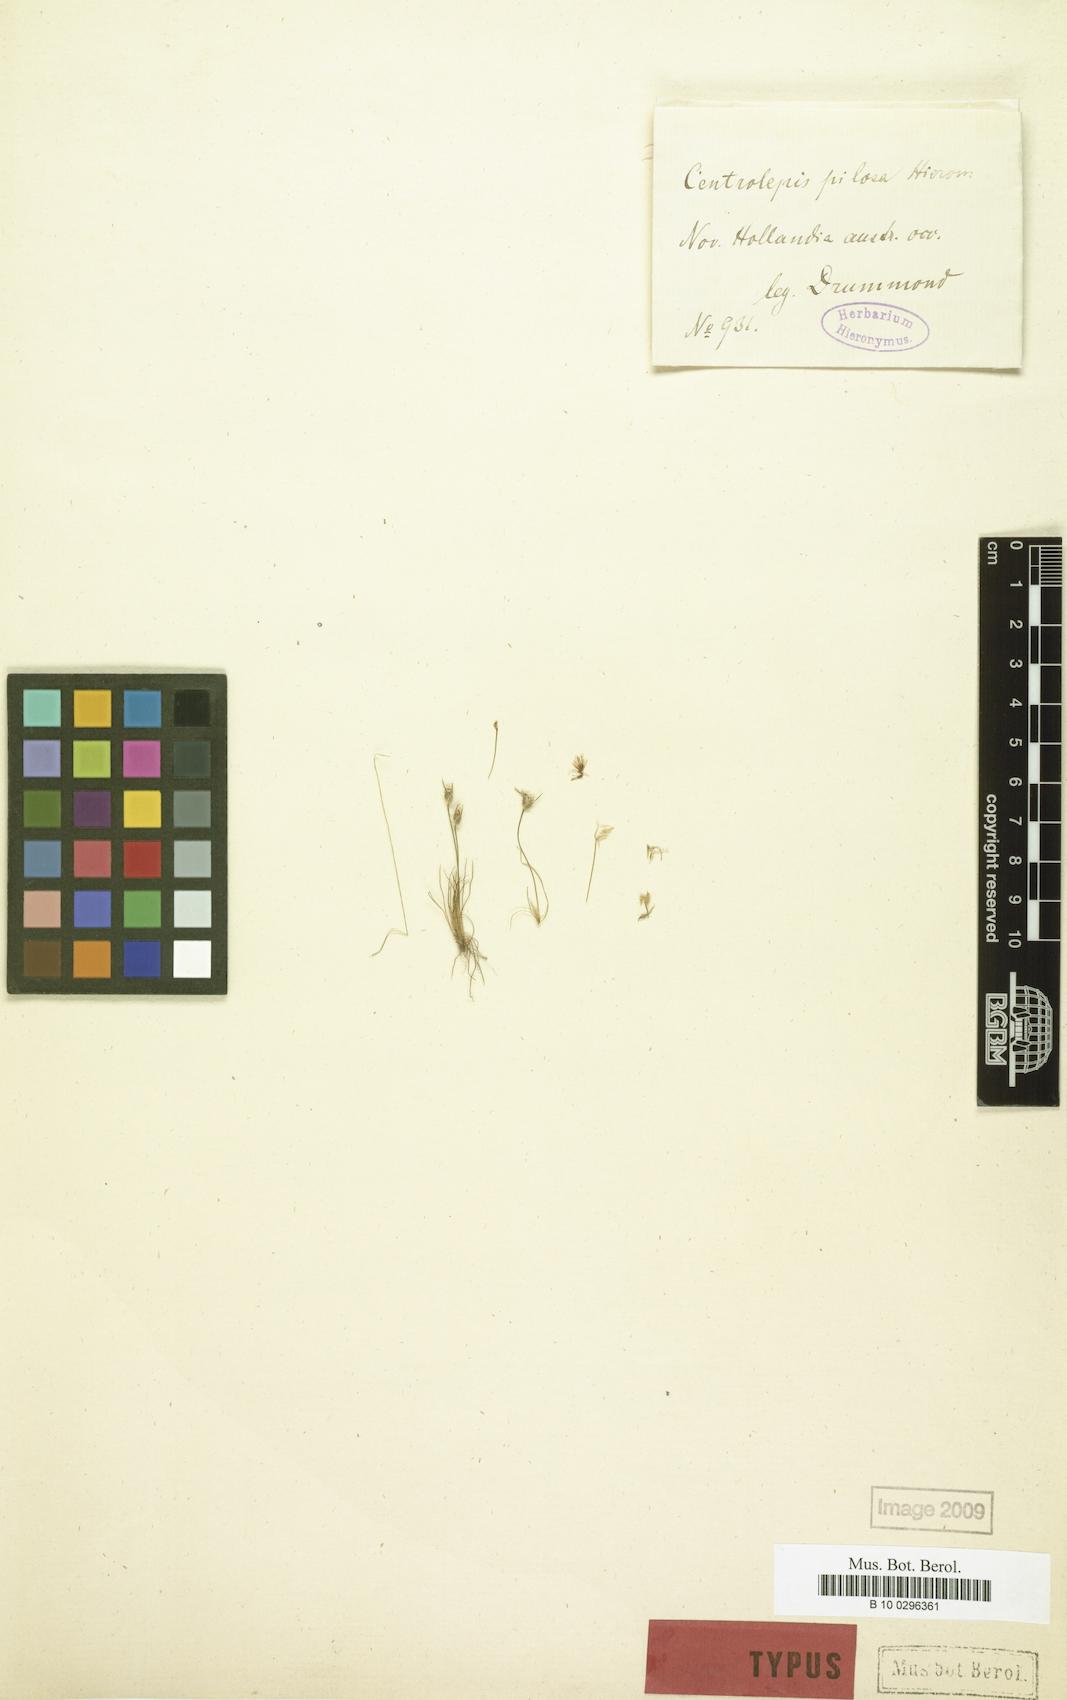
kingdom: Plantae
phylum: Tracheophyta
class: Liliopsida
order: Poales
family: Restionaceae
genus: Centrolepis
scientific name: Centrolepis pilosa
